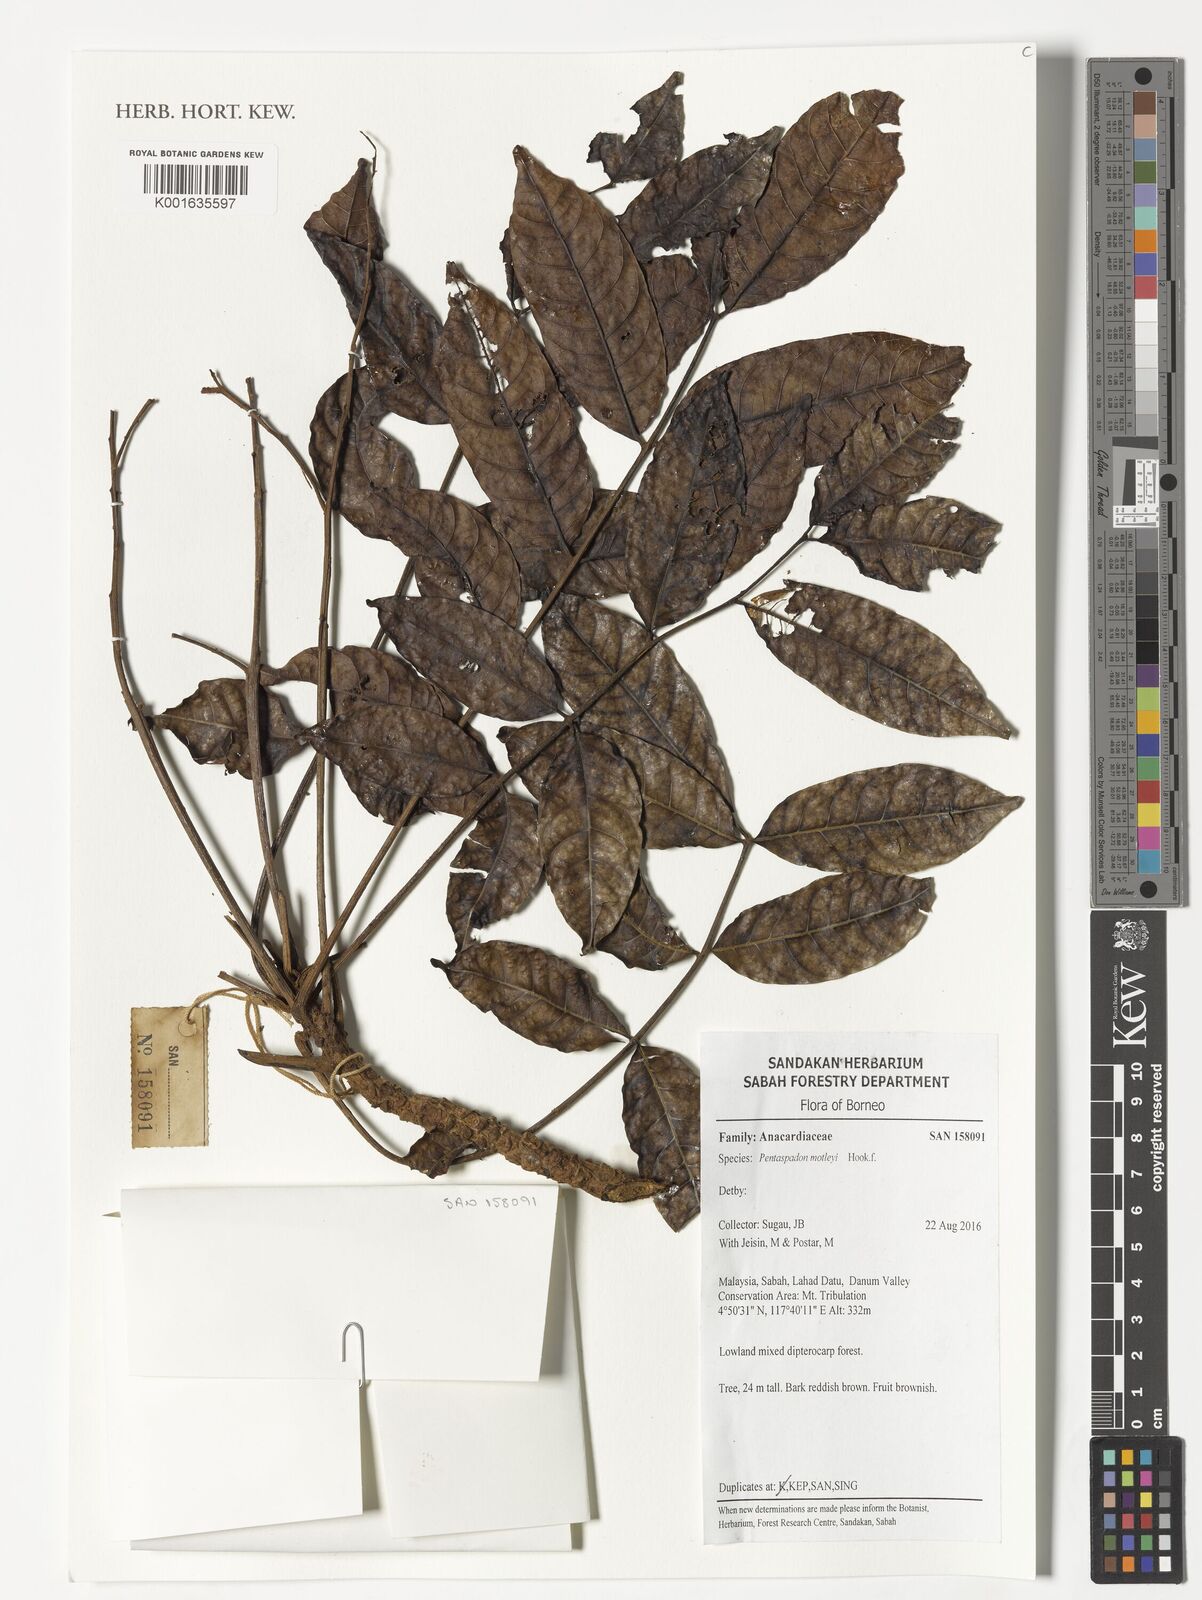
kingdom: Plantae
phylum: Tracheophyta
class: Magnoliopsida
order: Sapindales
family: Anacardiaceae
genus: Pentaspadon
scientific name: Pentaspadon motleyi
